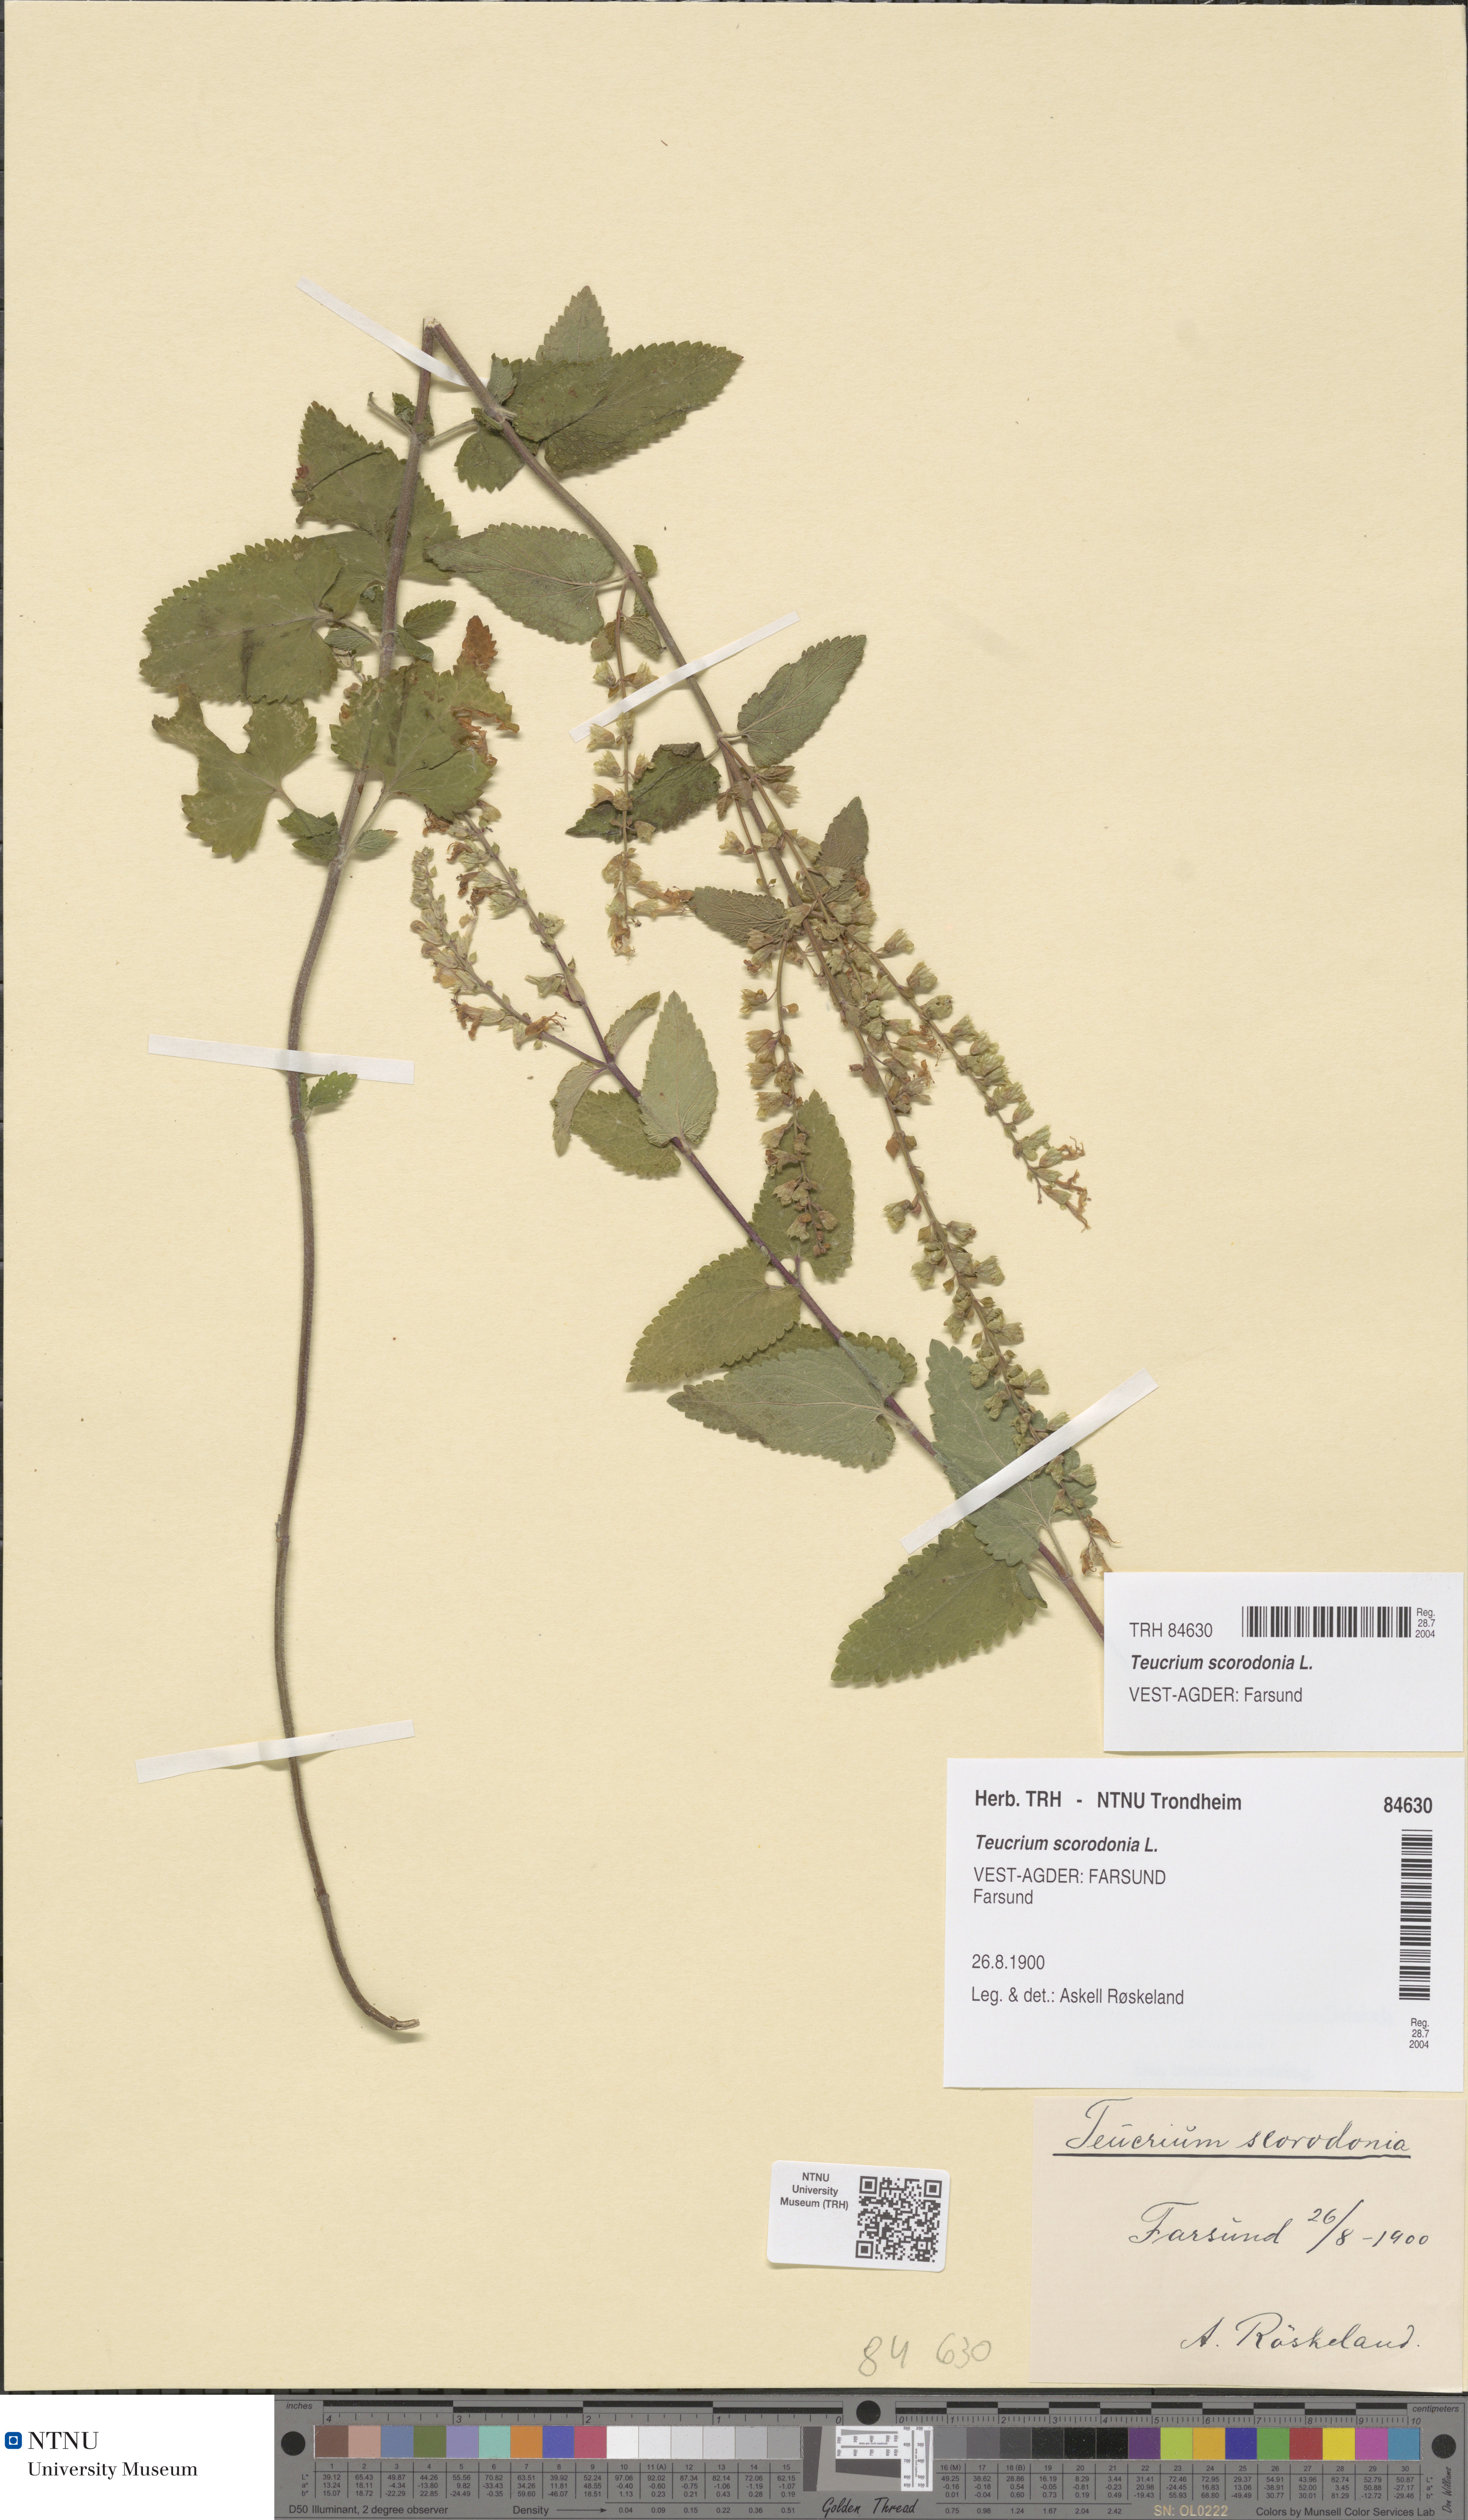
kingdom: Plantae
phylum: Tracheophyta
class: Magnoliopsida
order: Lamiales
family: Lamiaceae
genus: Teucrium
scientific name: Teucrium scorodonia
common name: Woodland germander
